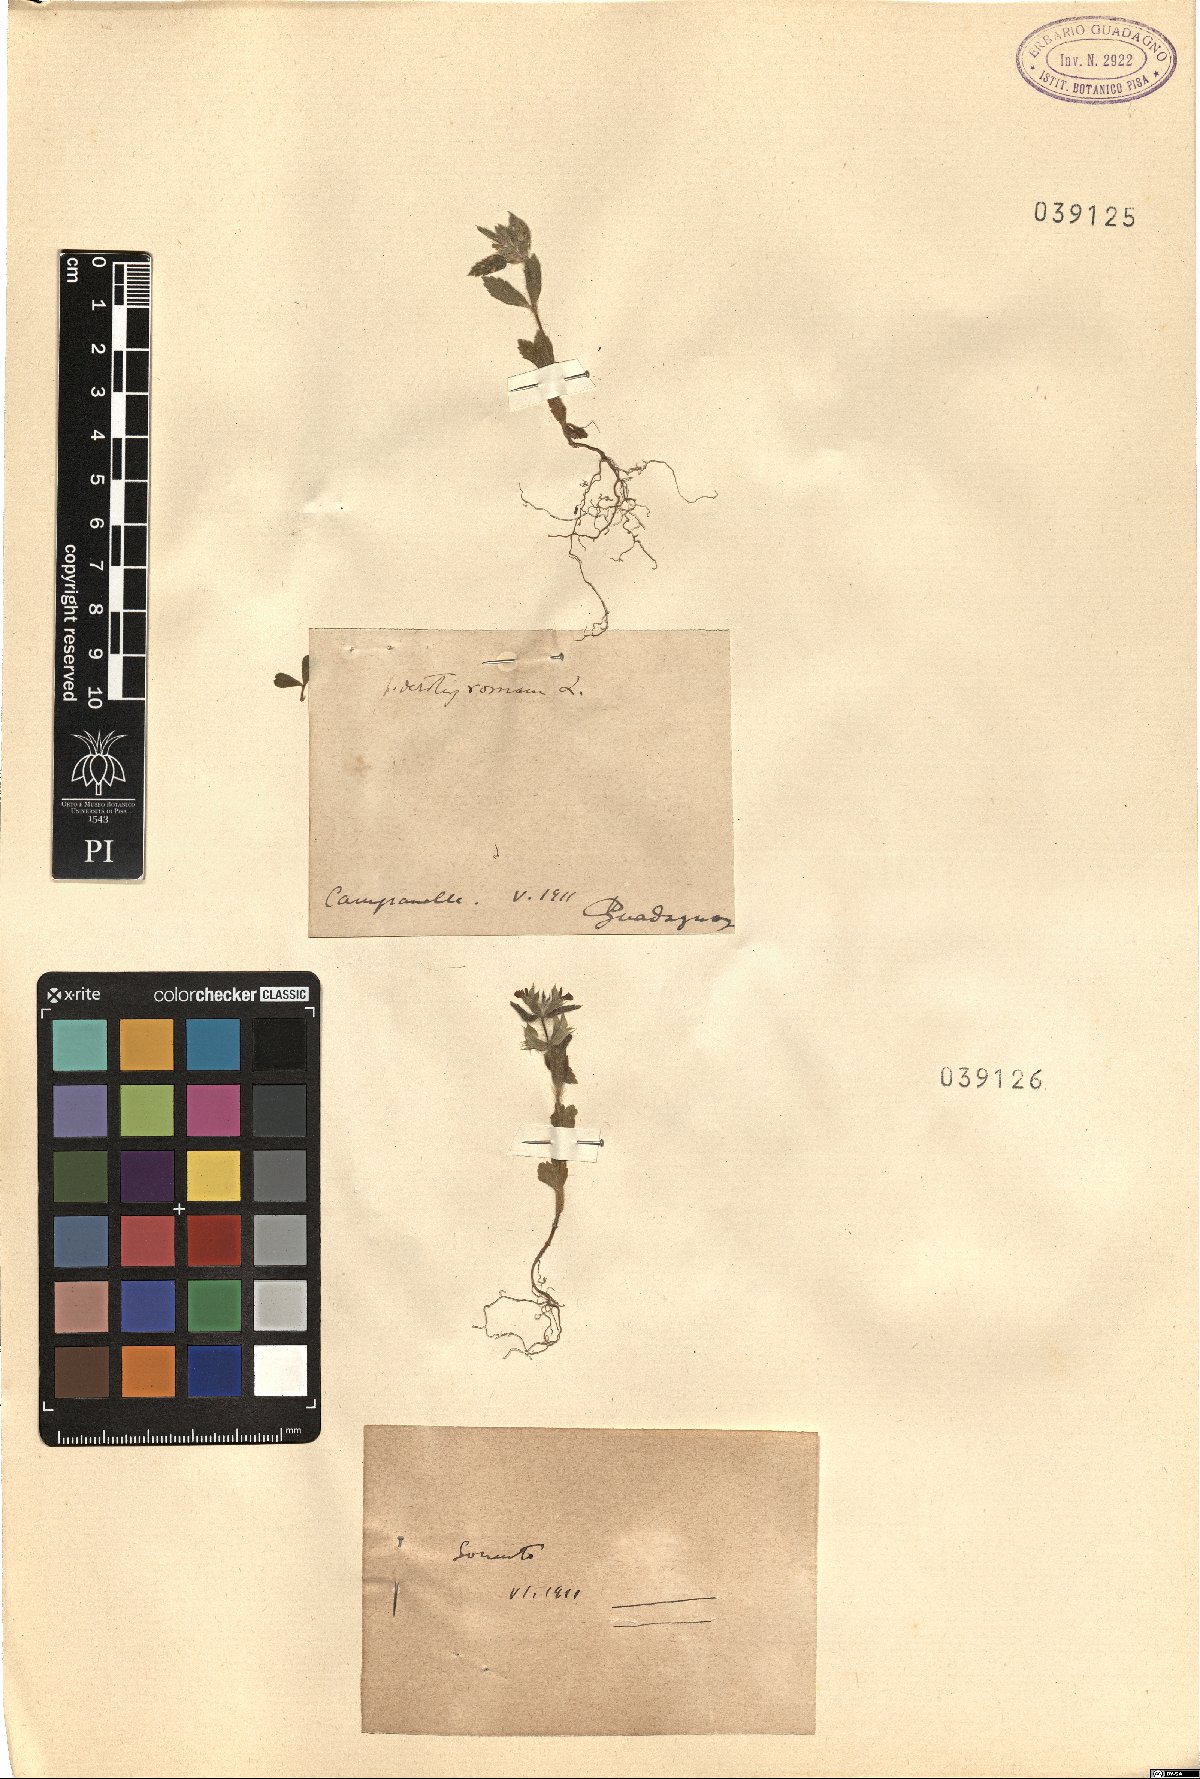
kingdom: Plantae
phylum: Tracheophyta
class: Magnoliopsida
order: Lamiales
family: Lamiaceae
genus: Sideritis
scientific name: Sideritis romana
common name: Simplebeak ironwort
